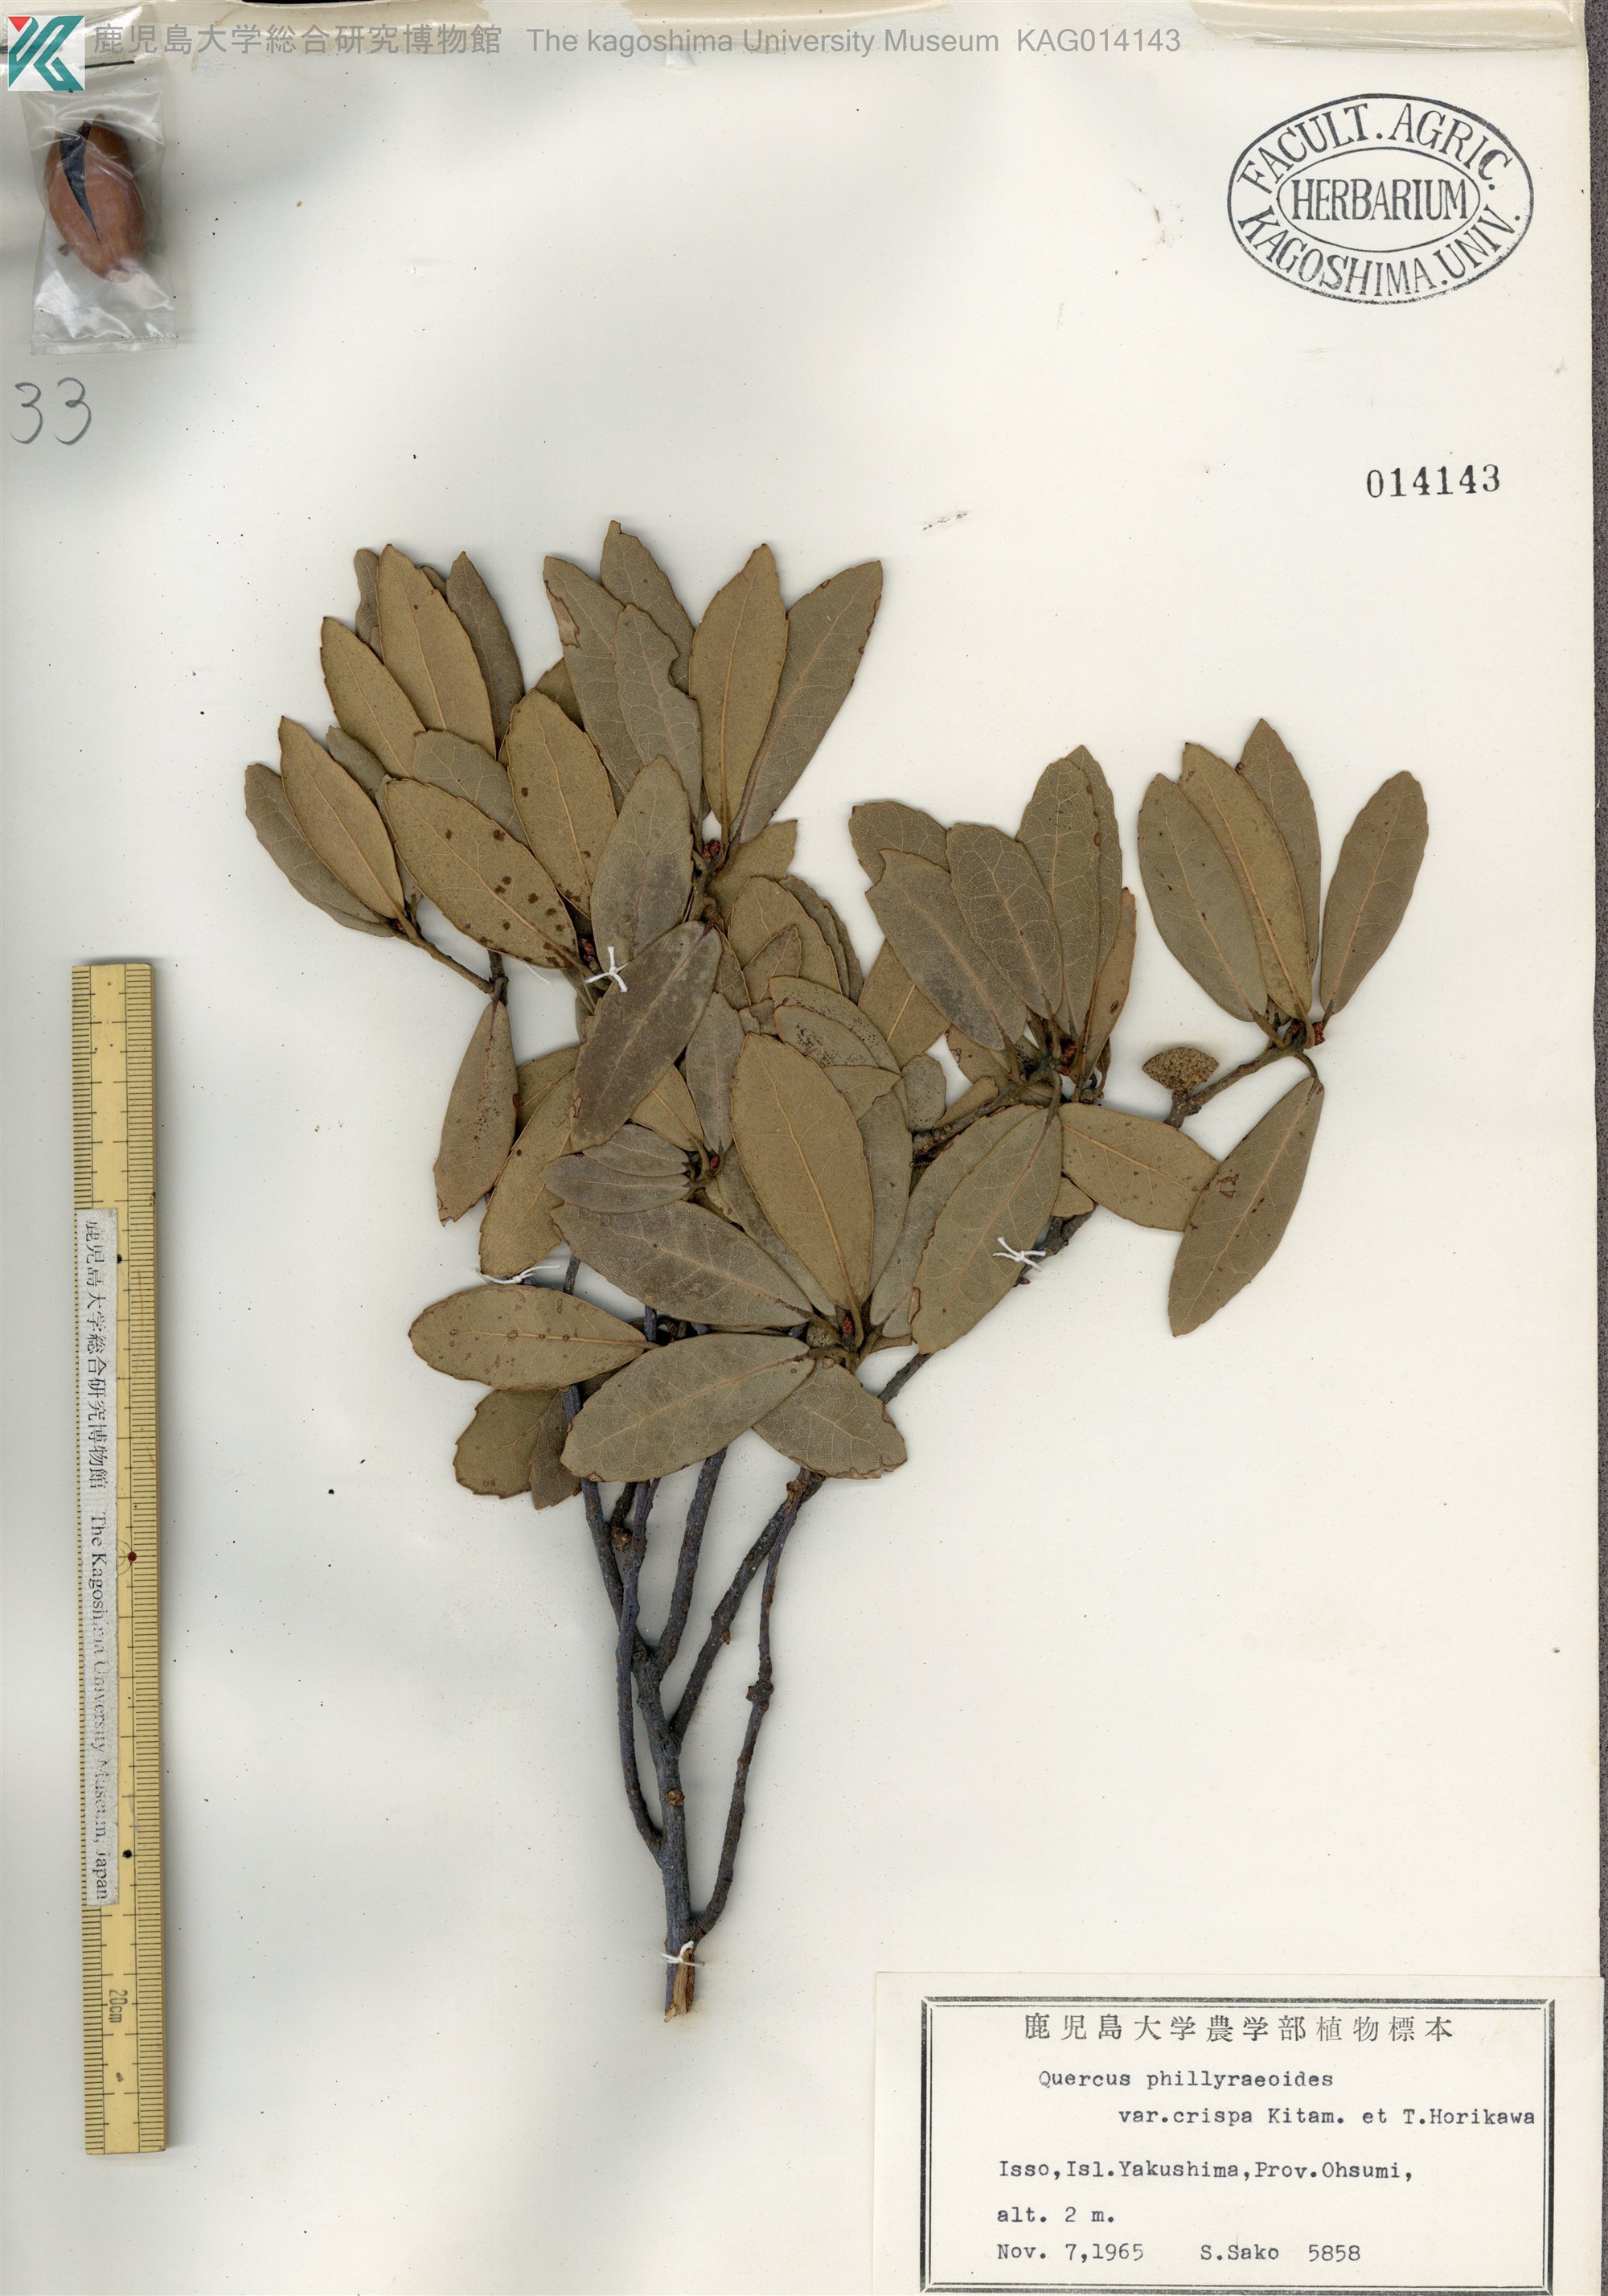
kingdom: Plantae
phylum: Tracheophyta
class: Magnoliopsida
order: Fagales
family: Fagaceae
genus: Quercus
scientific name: Quercus phillyreoides
